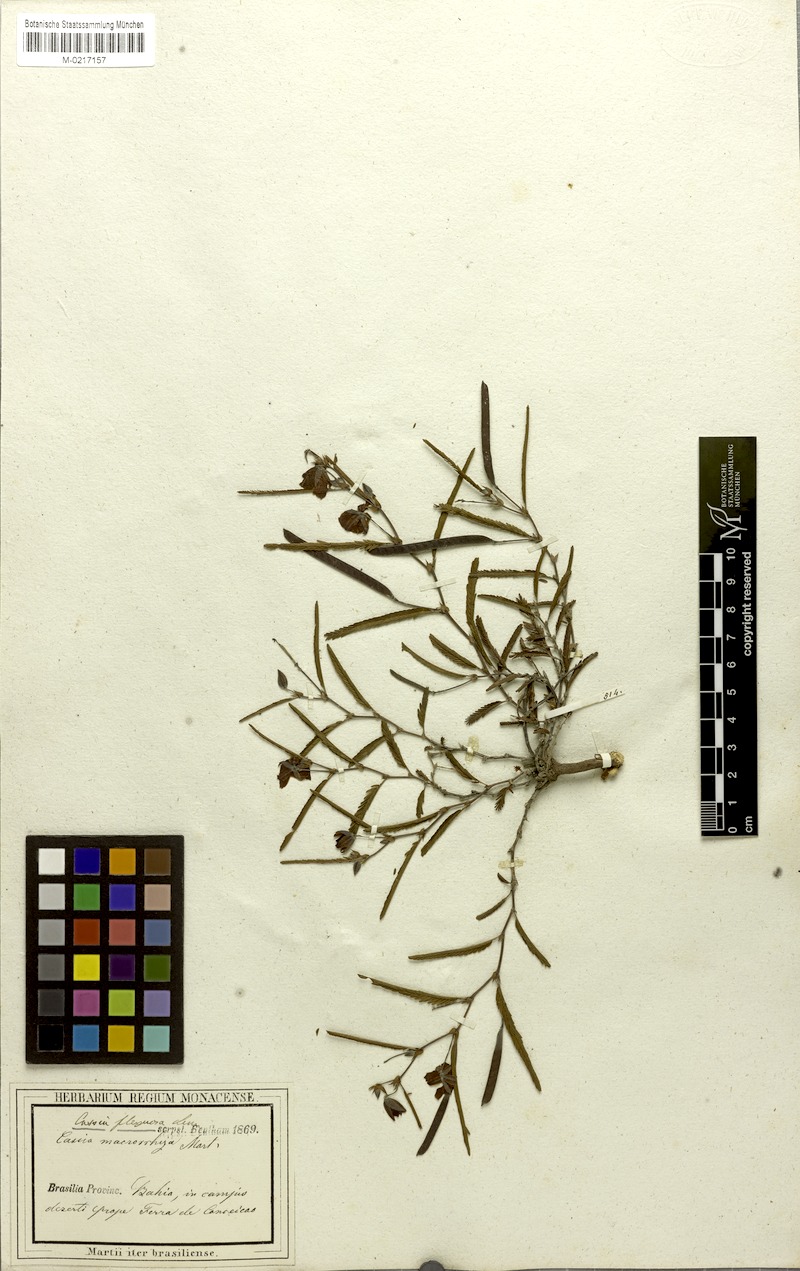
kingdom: Plantae
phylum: Tracheophyta
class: Magnoliopsida
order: Fabales
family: Fabaceae
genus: Chamaecrista
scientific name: Chamaecrista flexuosa
